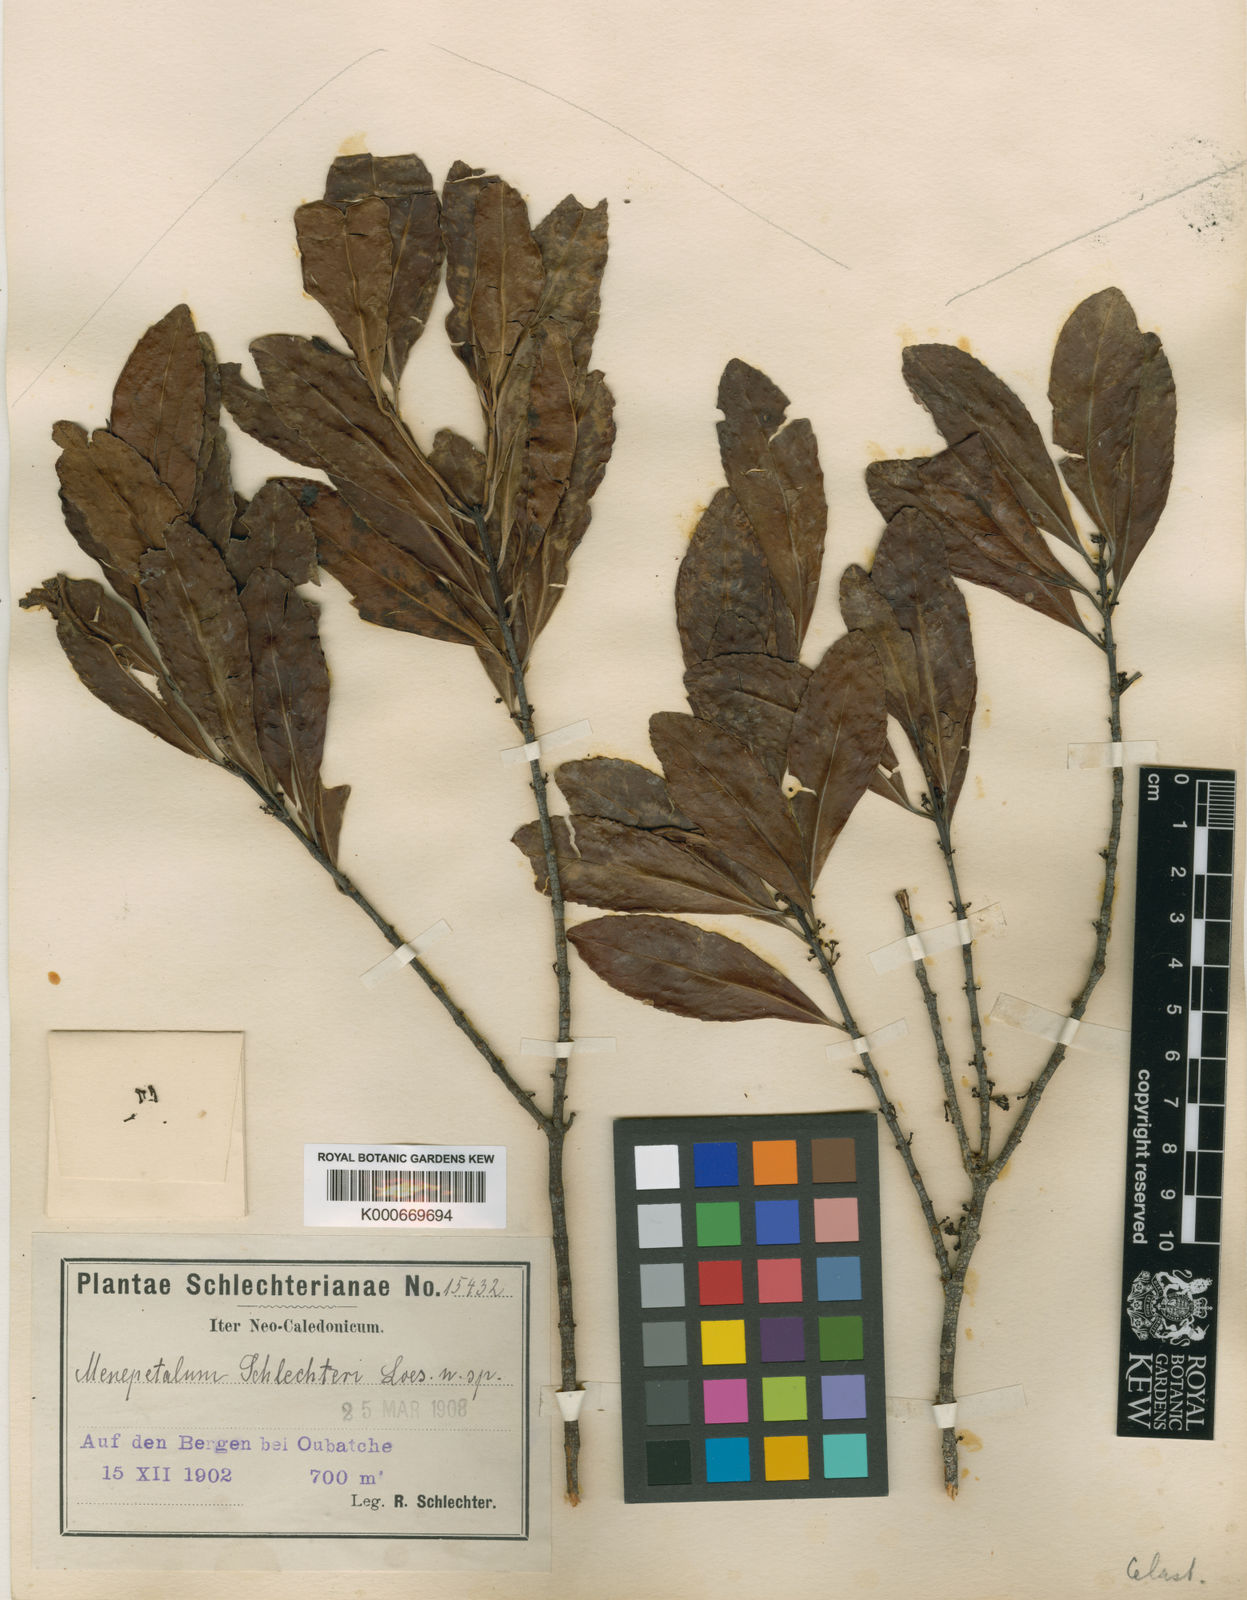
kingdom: Plantae
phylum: Tracheophyta
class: Magnoliopsida
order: Celastrales
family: Celastraceae
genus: Menepetalum
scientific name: Menepetalum schlechteri
